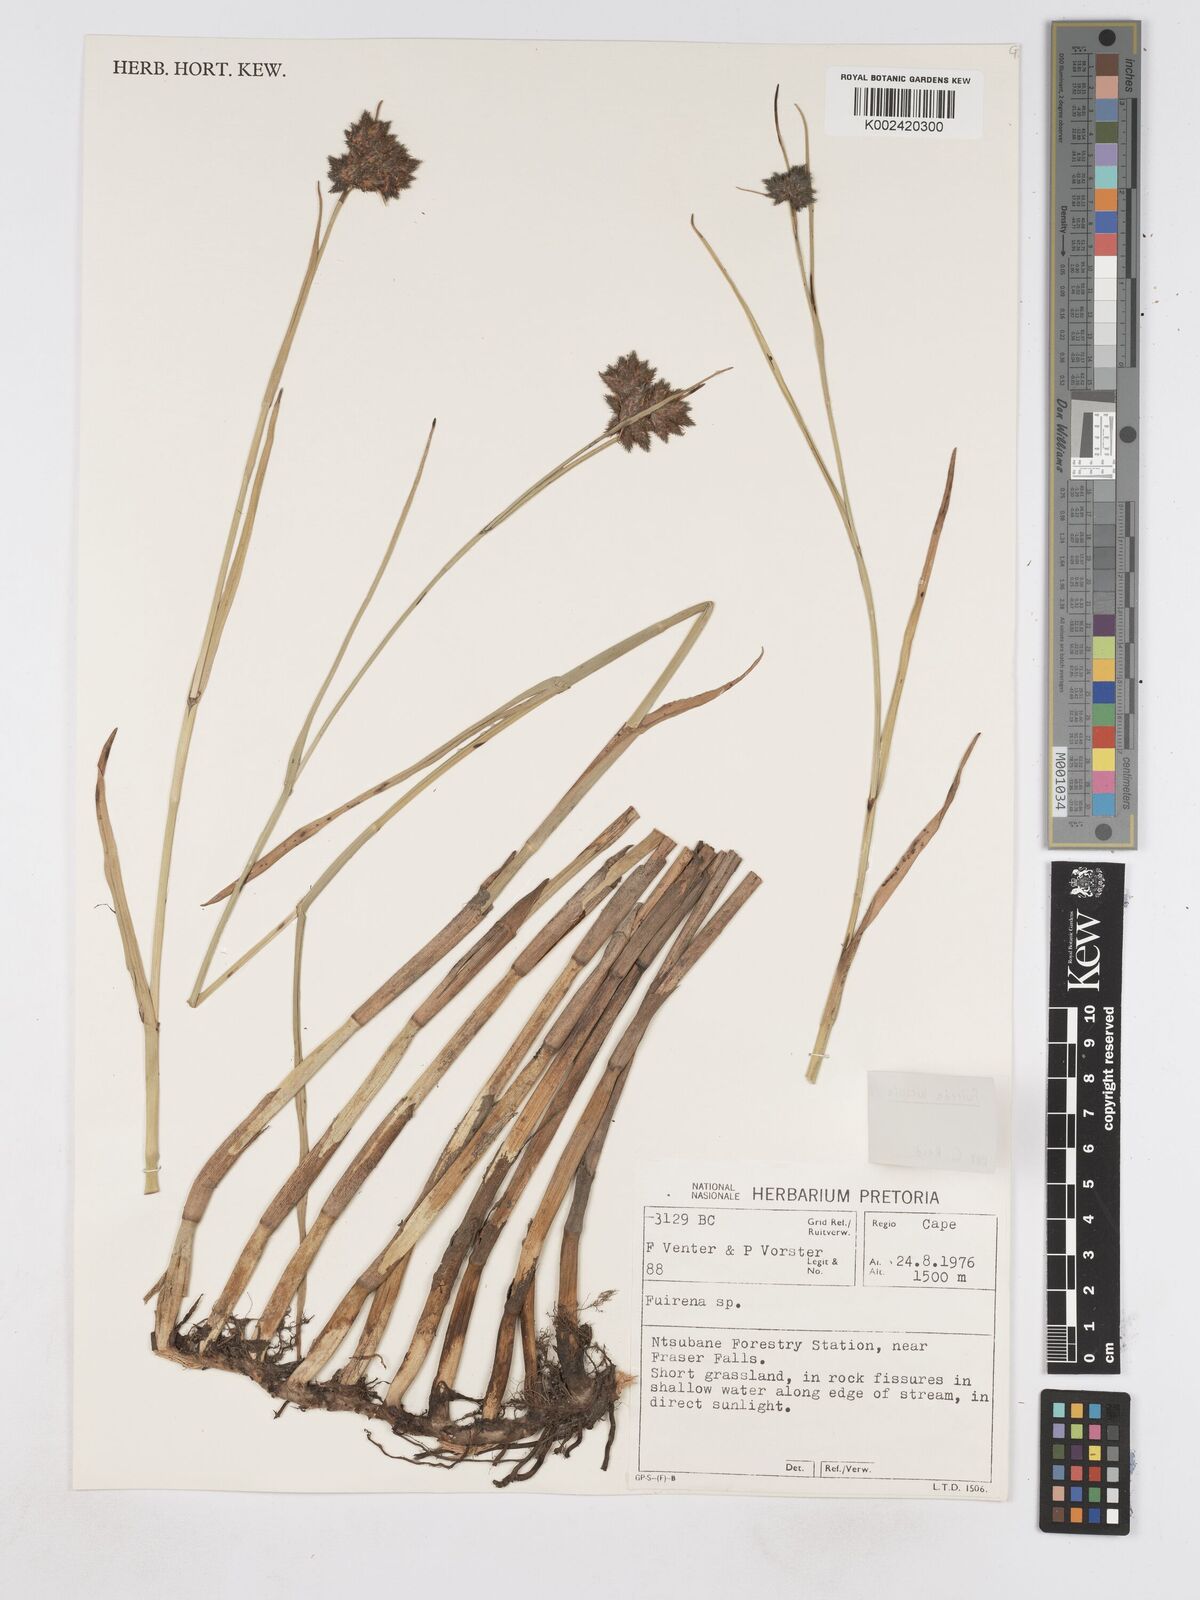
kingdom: Plantae
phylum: Tracheophyta
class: Liliopsida
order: Poales
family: Cyperaceae
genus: Fuirena
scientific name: Fuirena hirsuta
